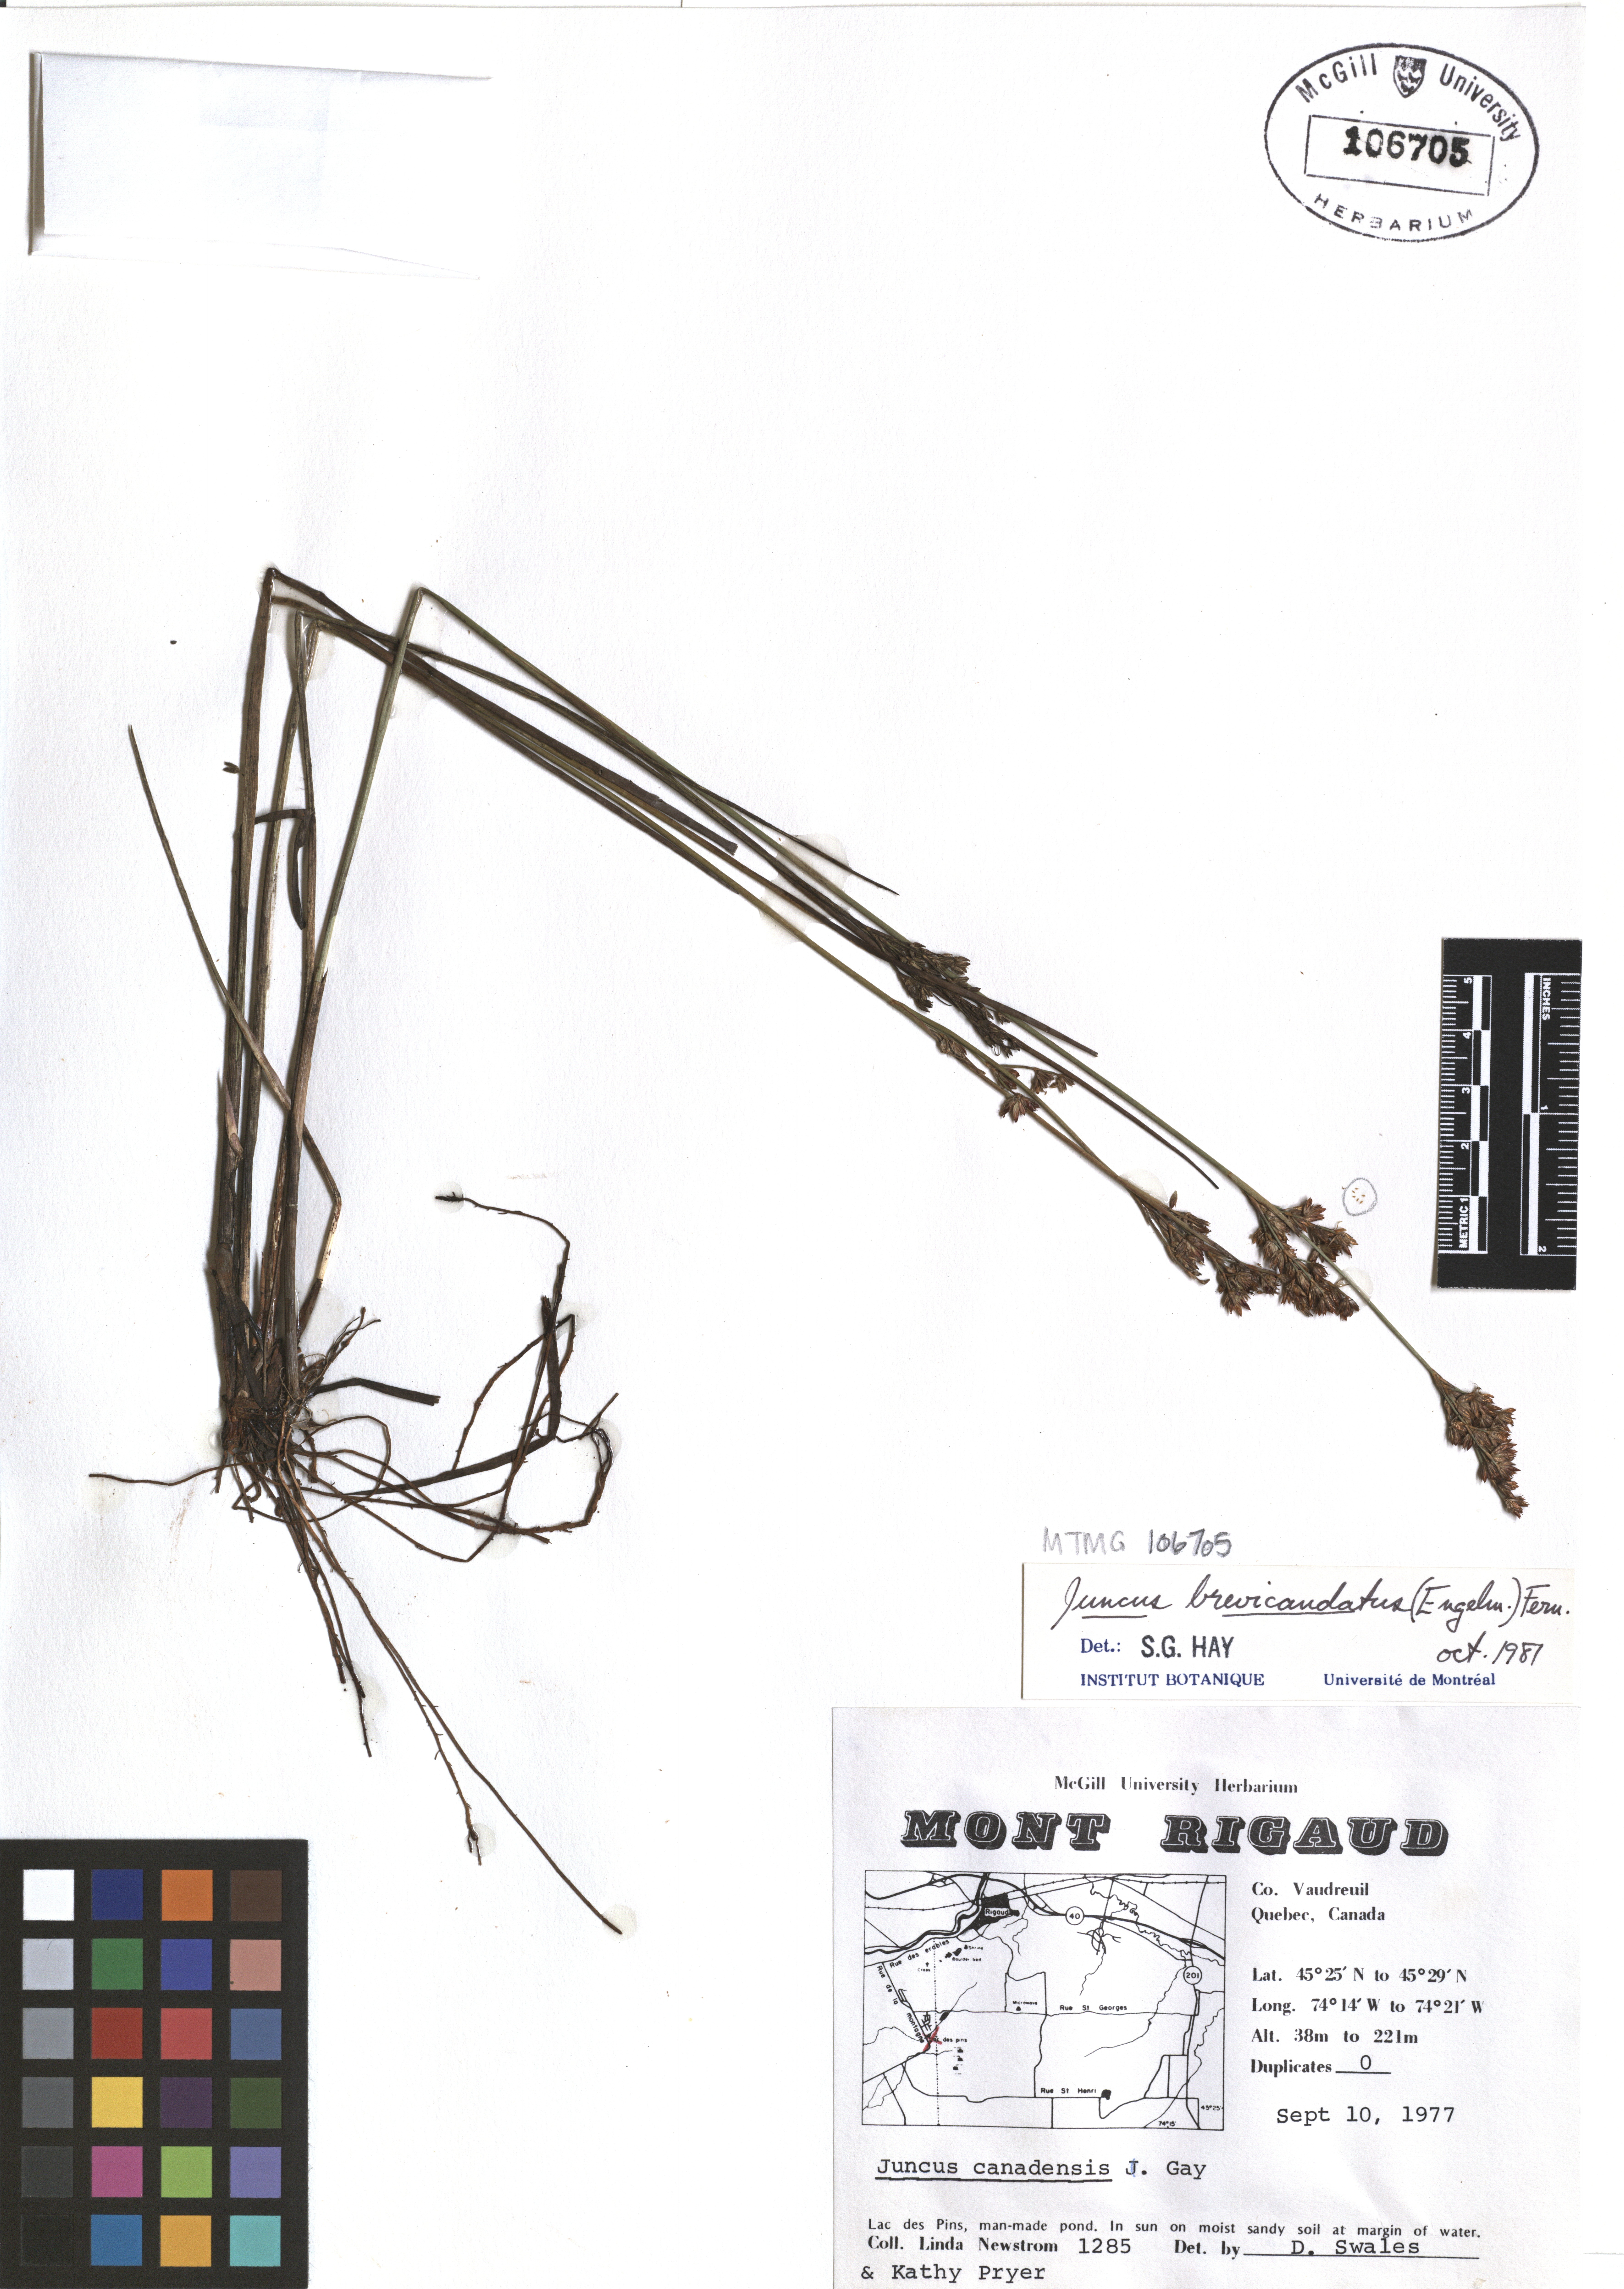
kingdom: Plantae
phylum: Tracheophyta
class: Liliopsida
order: Poales
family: Juncaceae
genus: Juncus
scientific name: Juncus brevicaudatus
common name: Narrow-panicle rush
